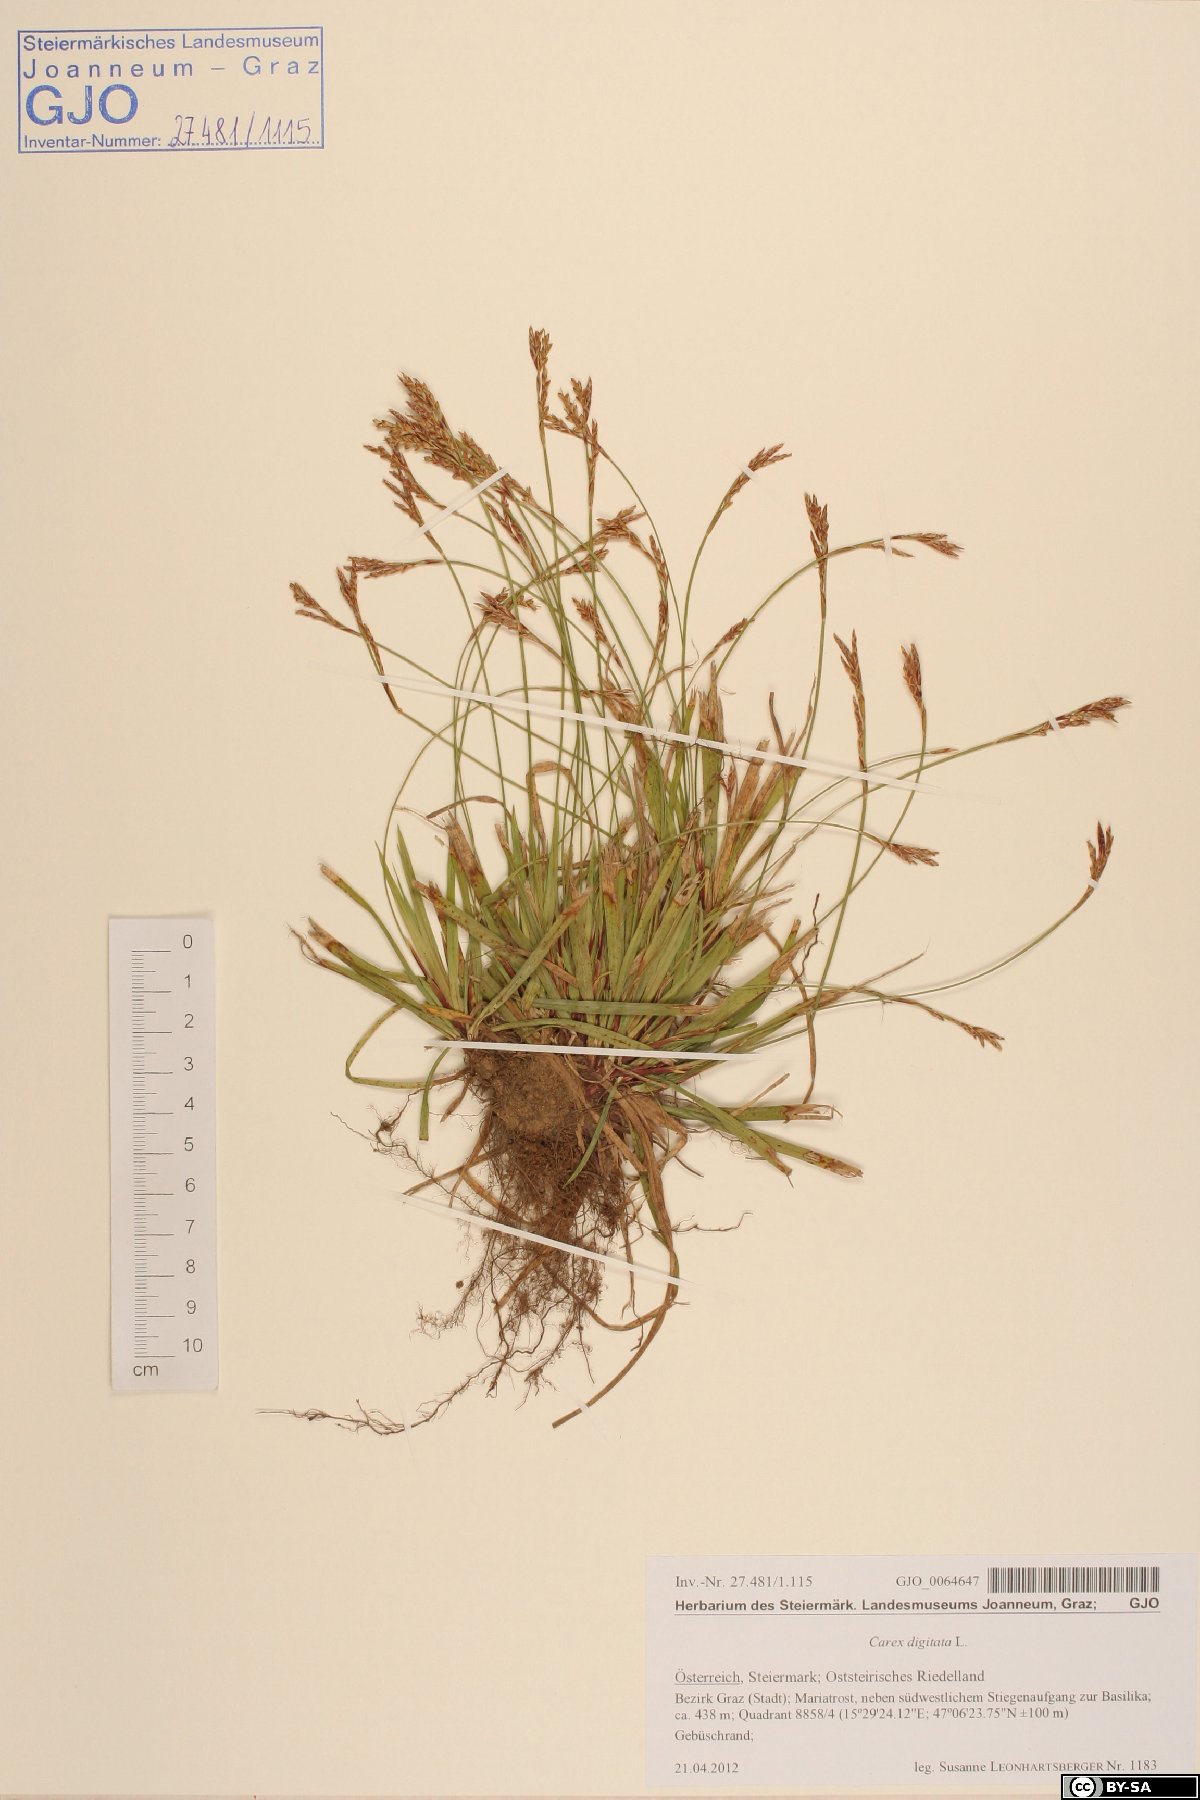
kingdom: Plantae
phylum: Tracheophyta
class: Liliopsida
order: Poales
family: Cyperaceae
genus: Carex
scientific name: Carex digitata
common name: Fingered sedge
